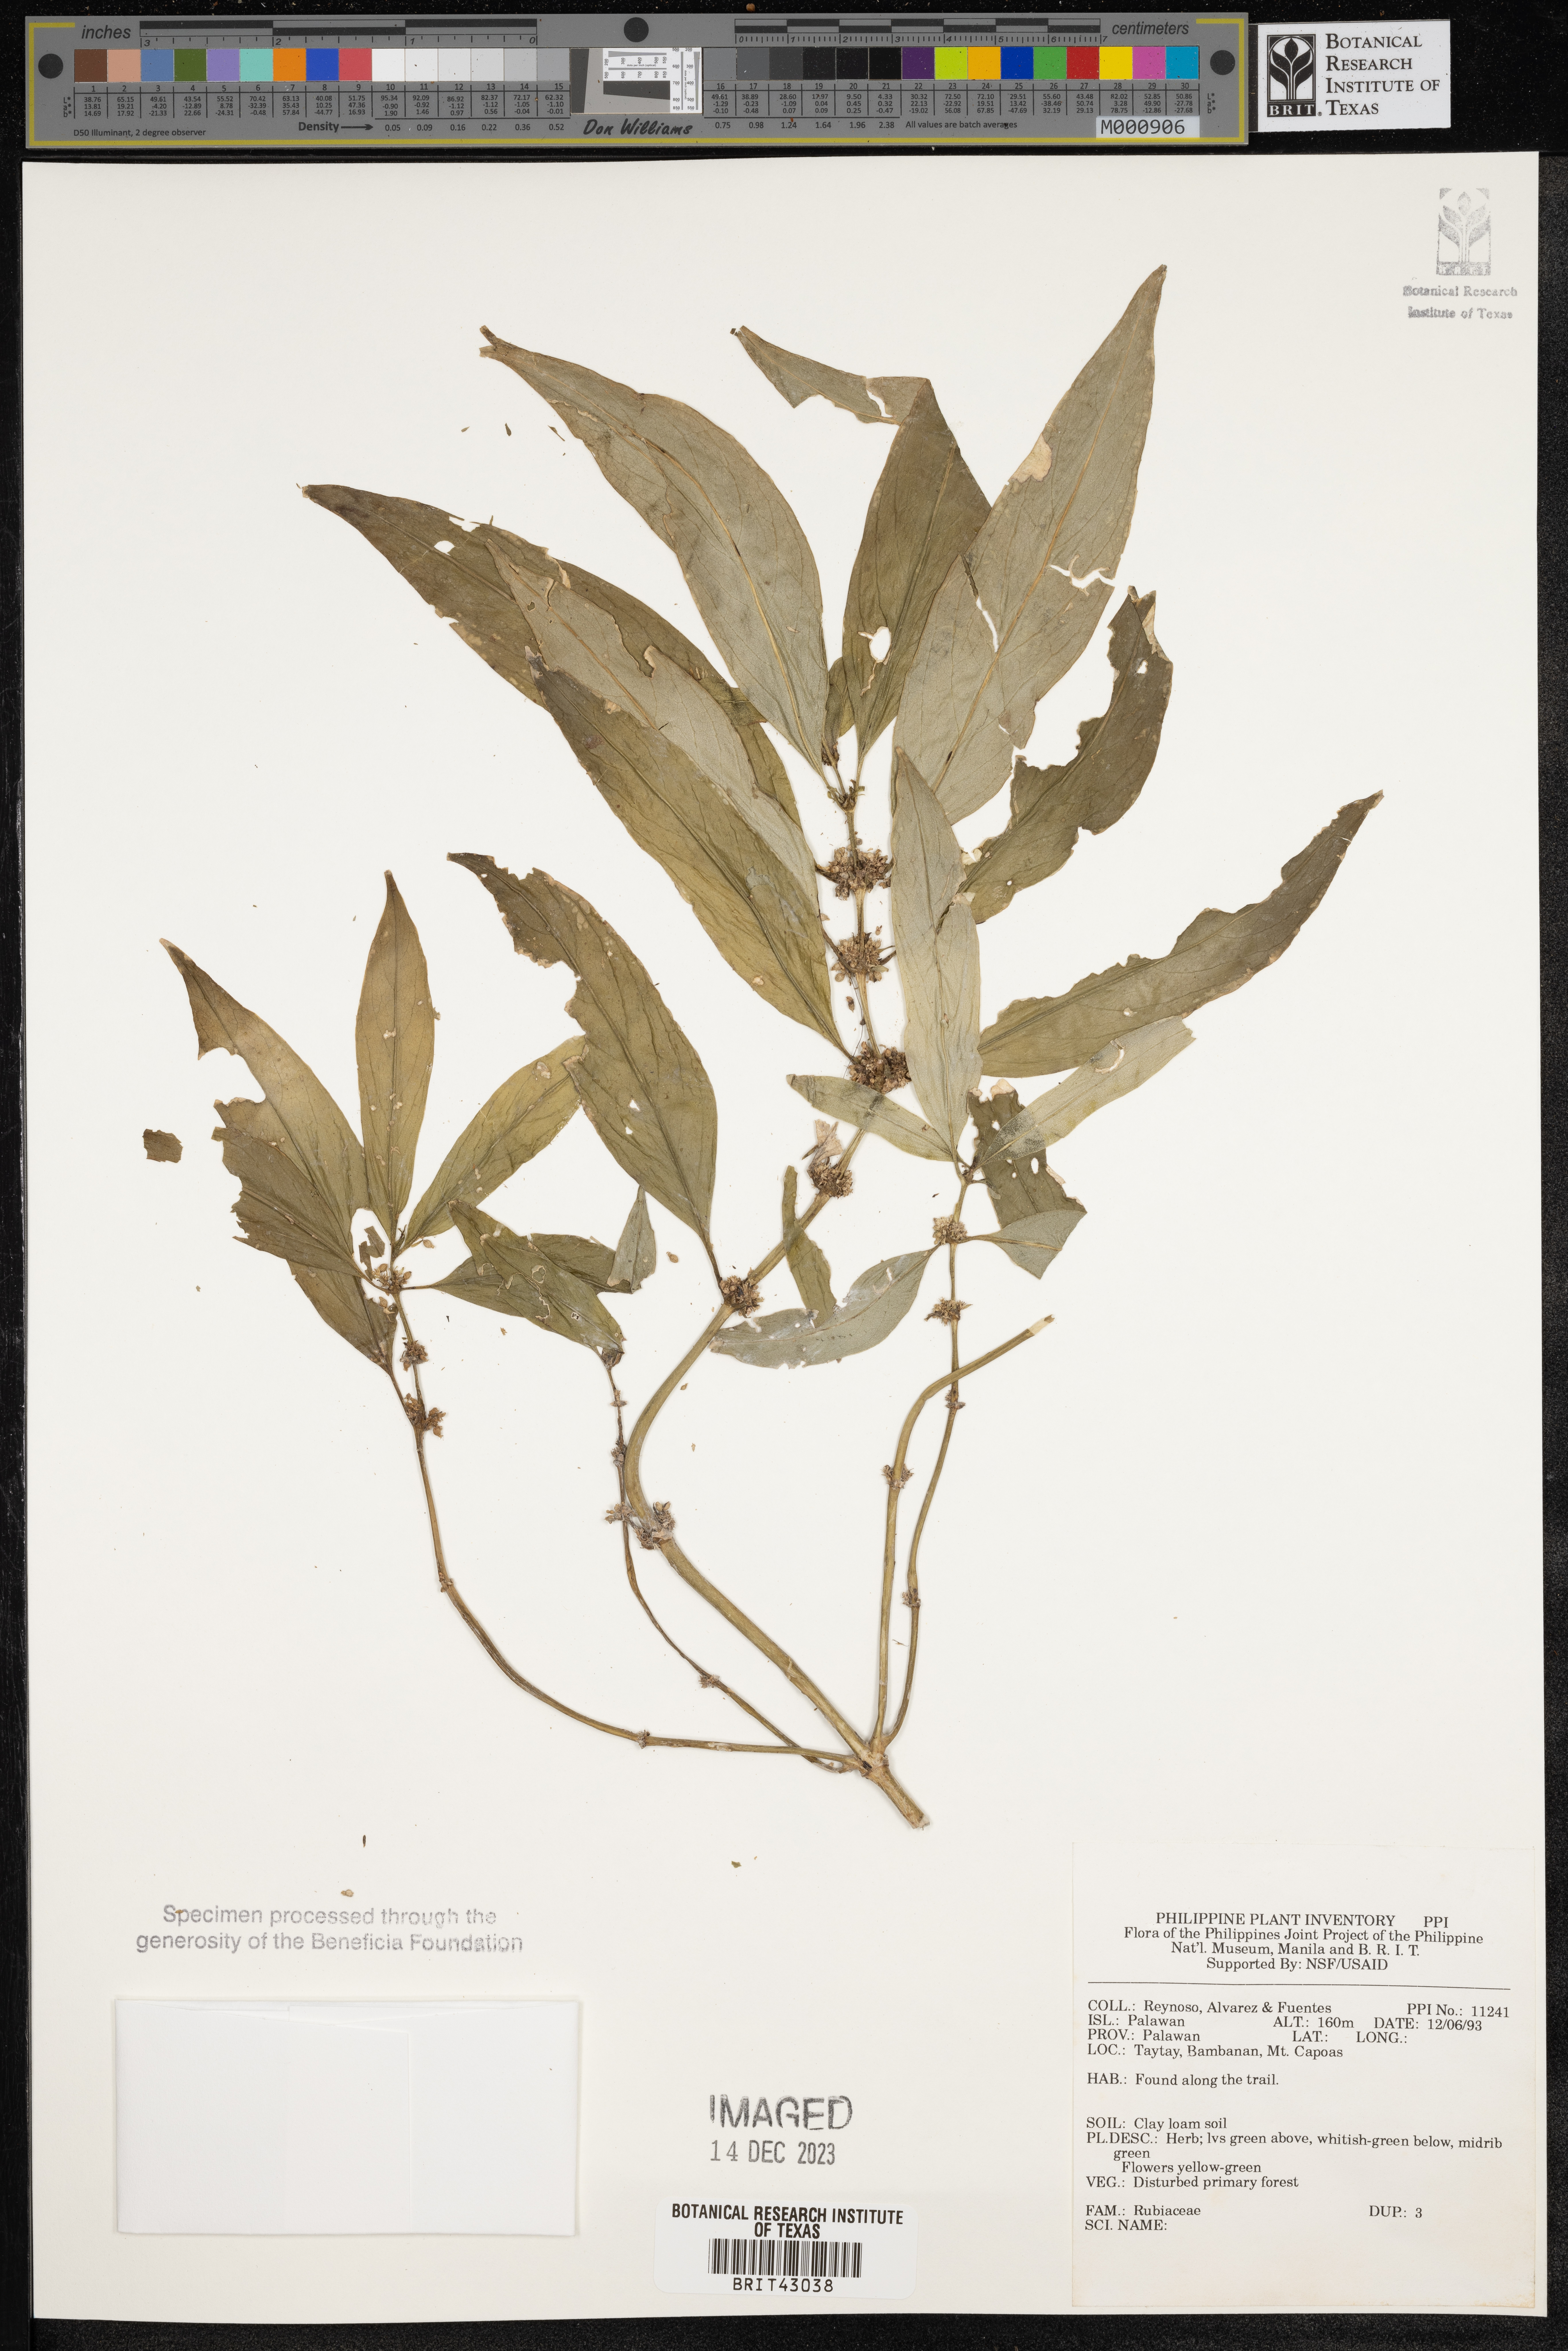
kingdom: Plantae
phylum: Tracheophyta
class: Magnoliopsida
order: Gentianales
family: Rubiaceae
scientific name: Rubiaceae
